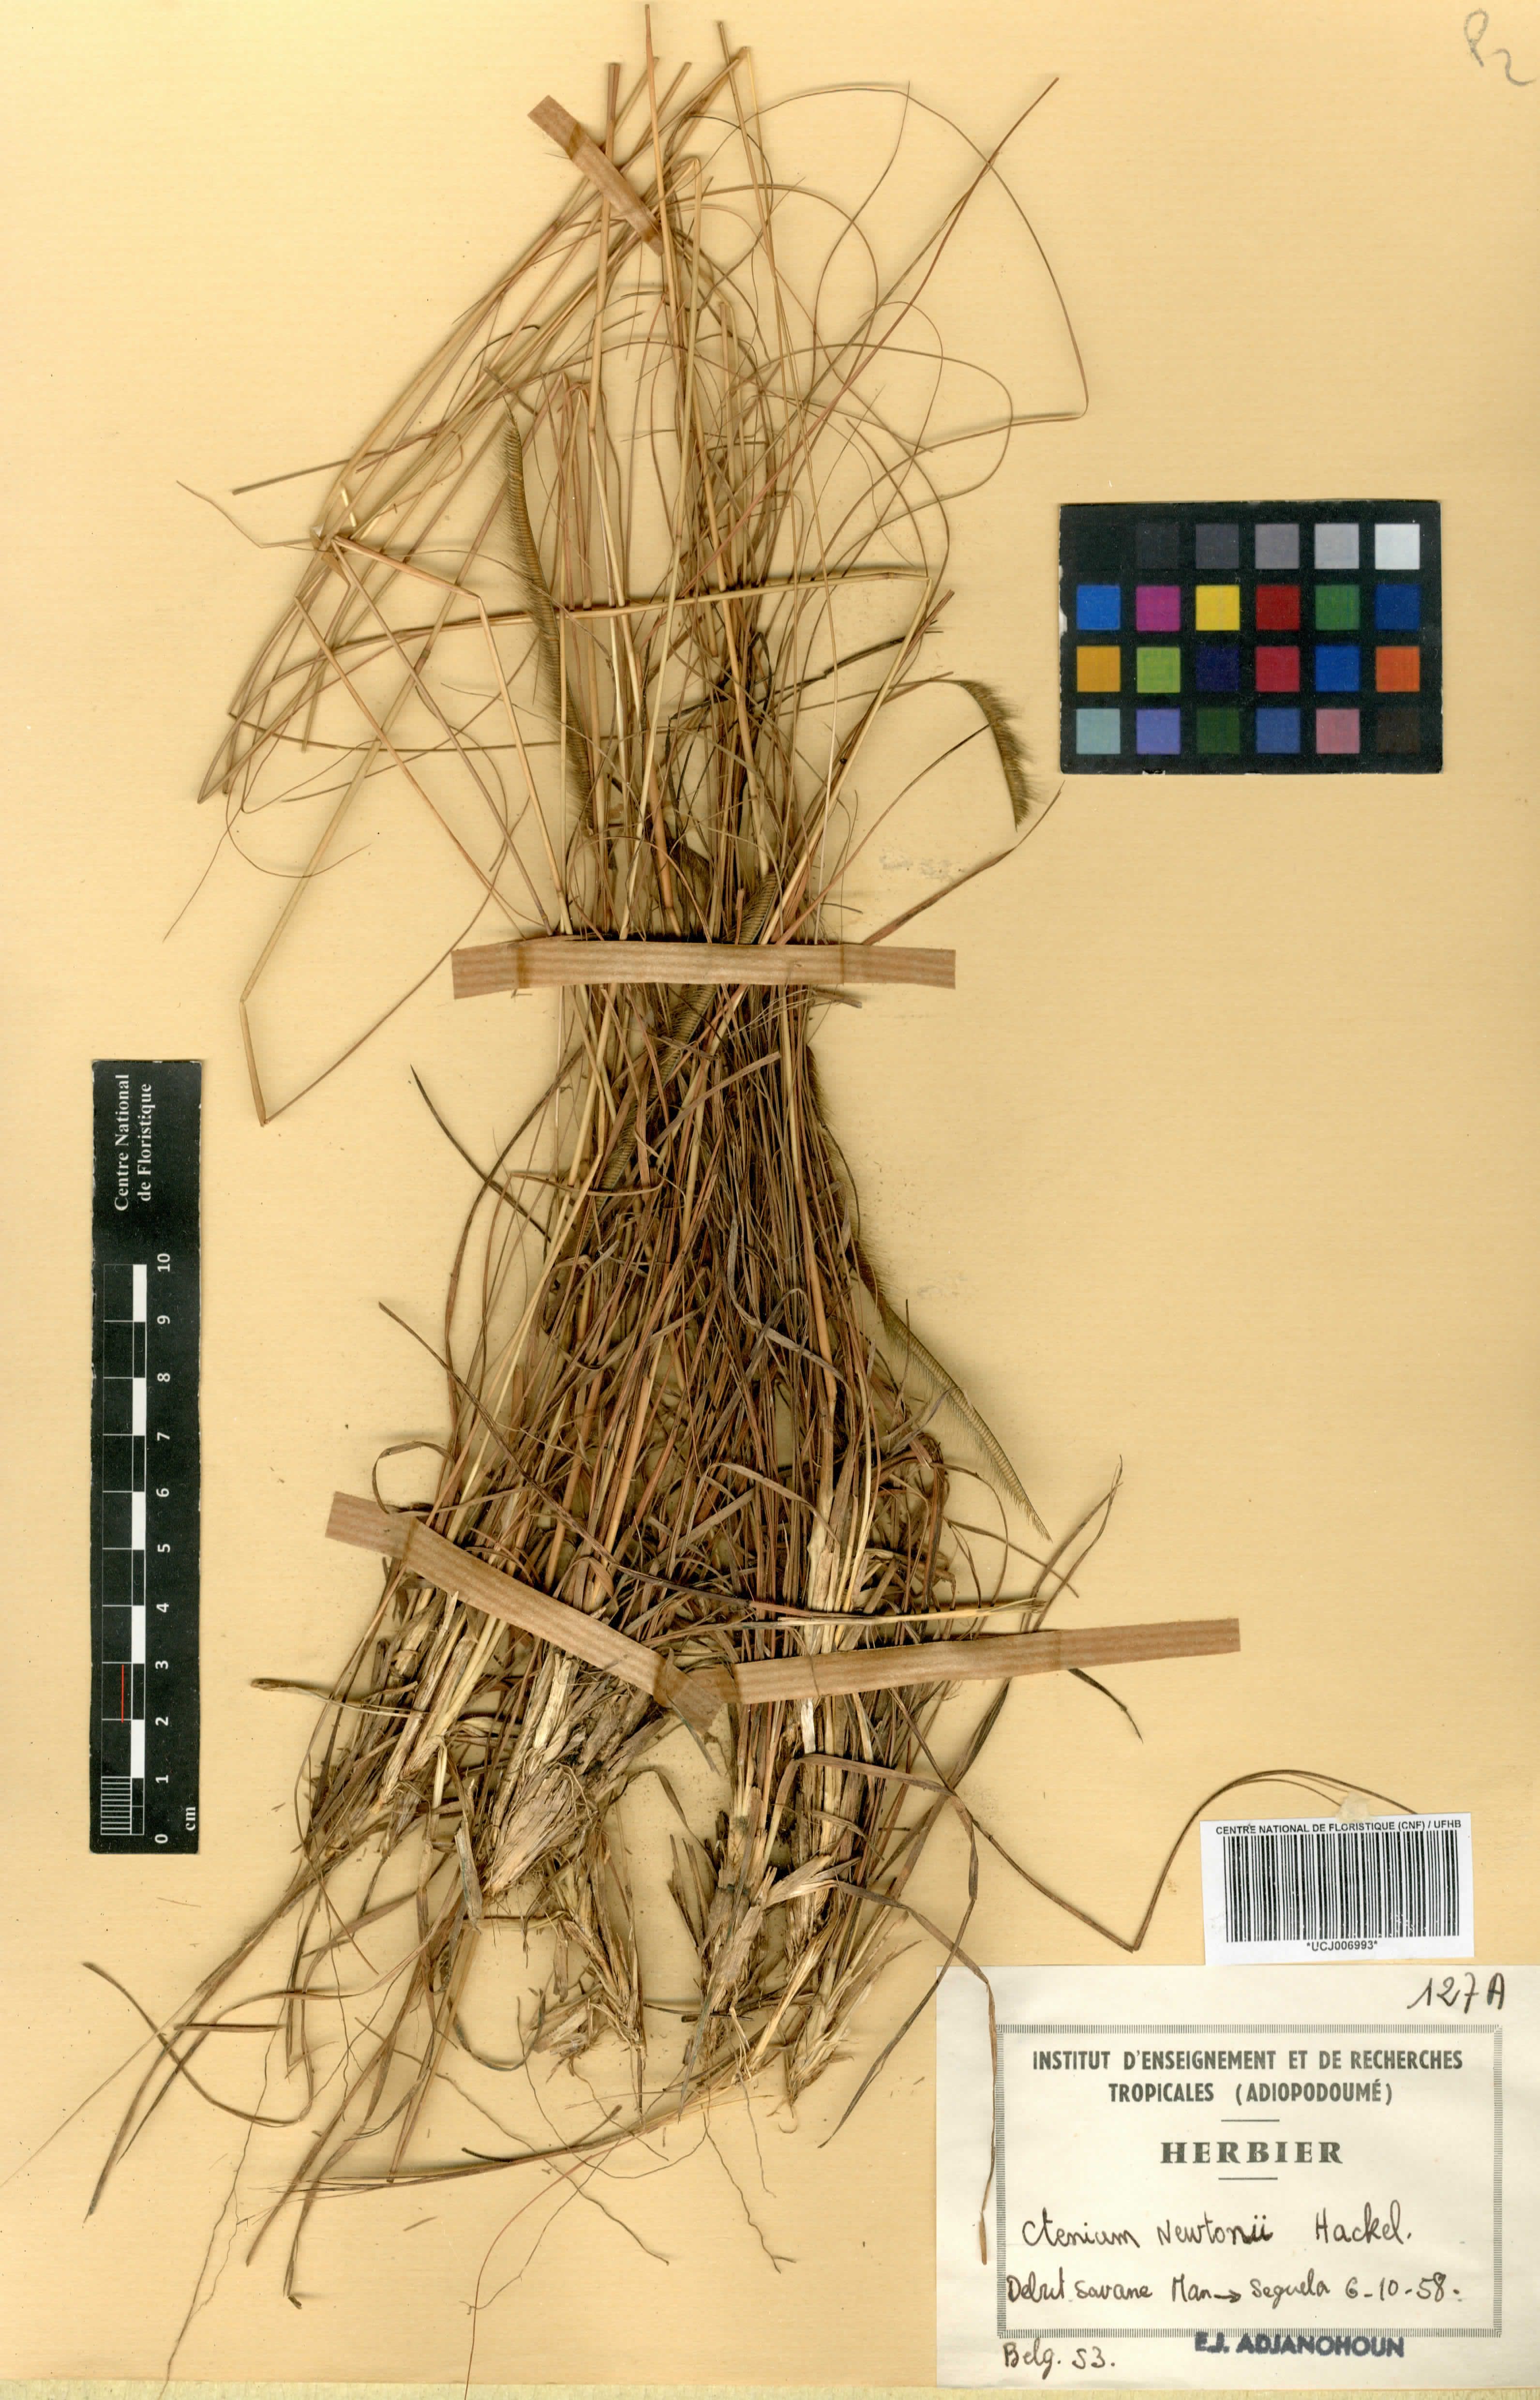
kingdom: Plantae
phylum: Tracheophyta
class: Liliopsida
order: Poales
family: Poaceae
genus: Ctenium
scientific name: Ctenium newtonii
